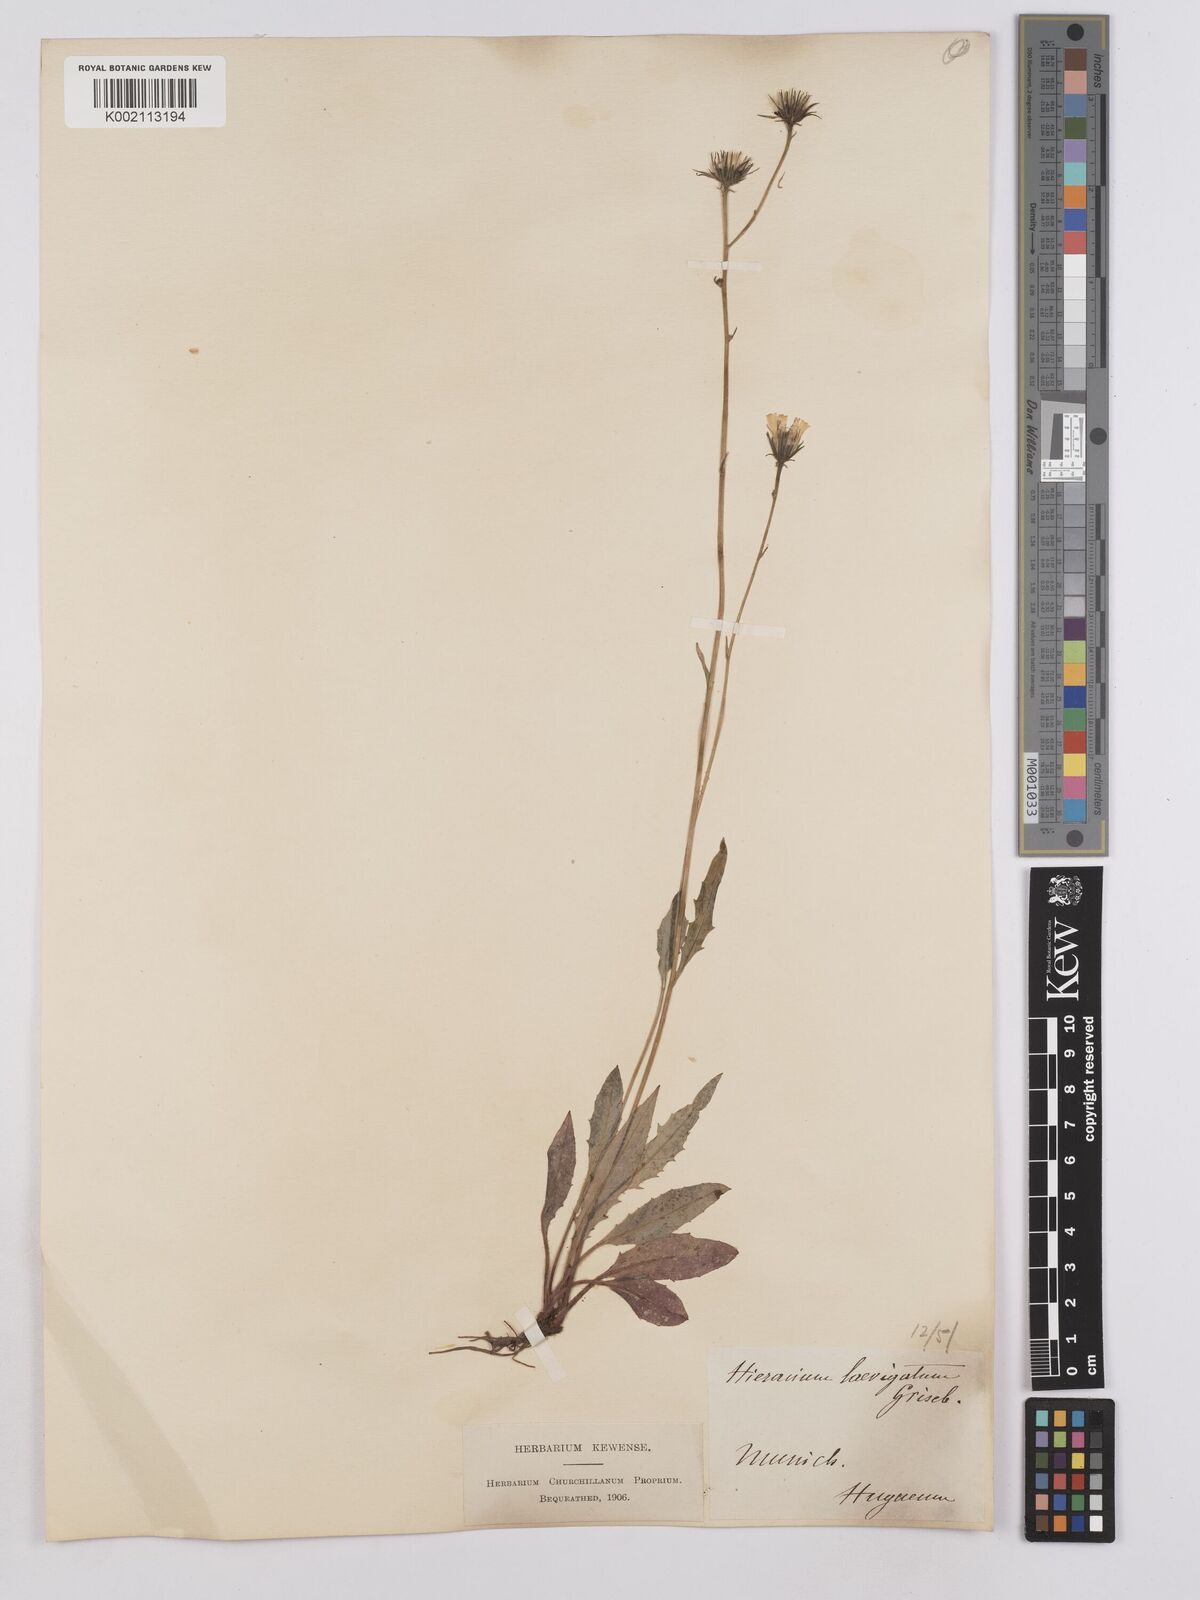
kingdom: Plantae
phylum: Tracheophyta
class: Magnoliopsida
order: Asterales
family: Asteraceae
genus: Crepis
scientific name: Crepis blattarioides
